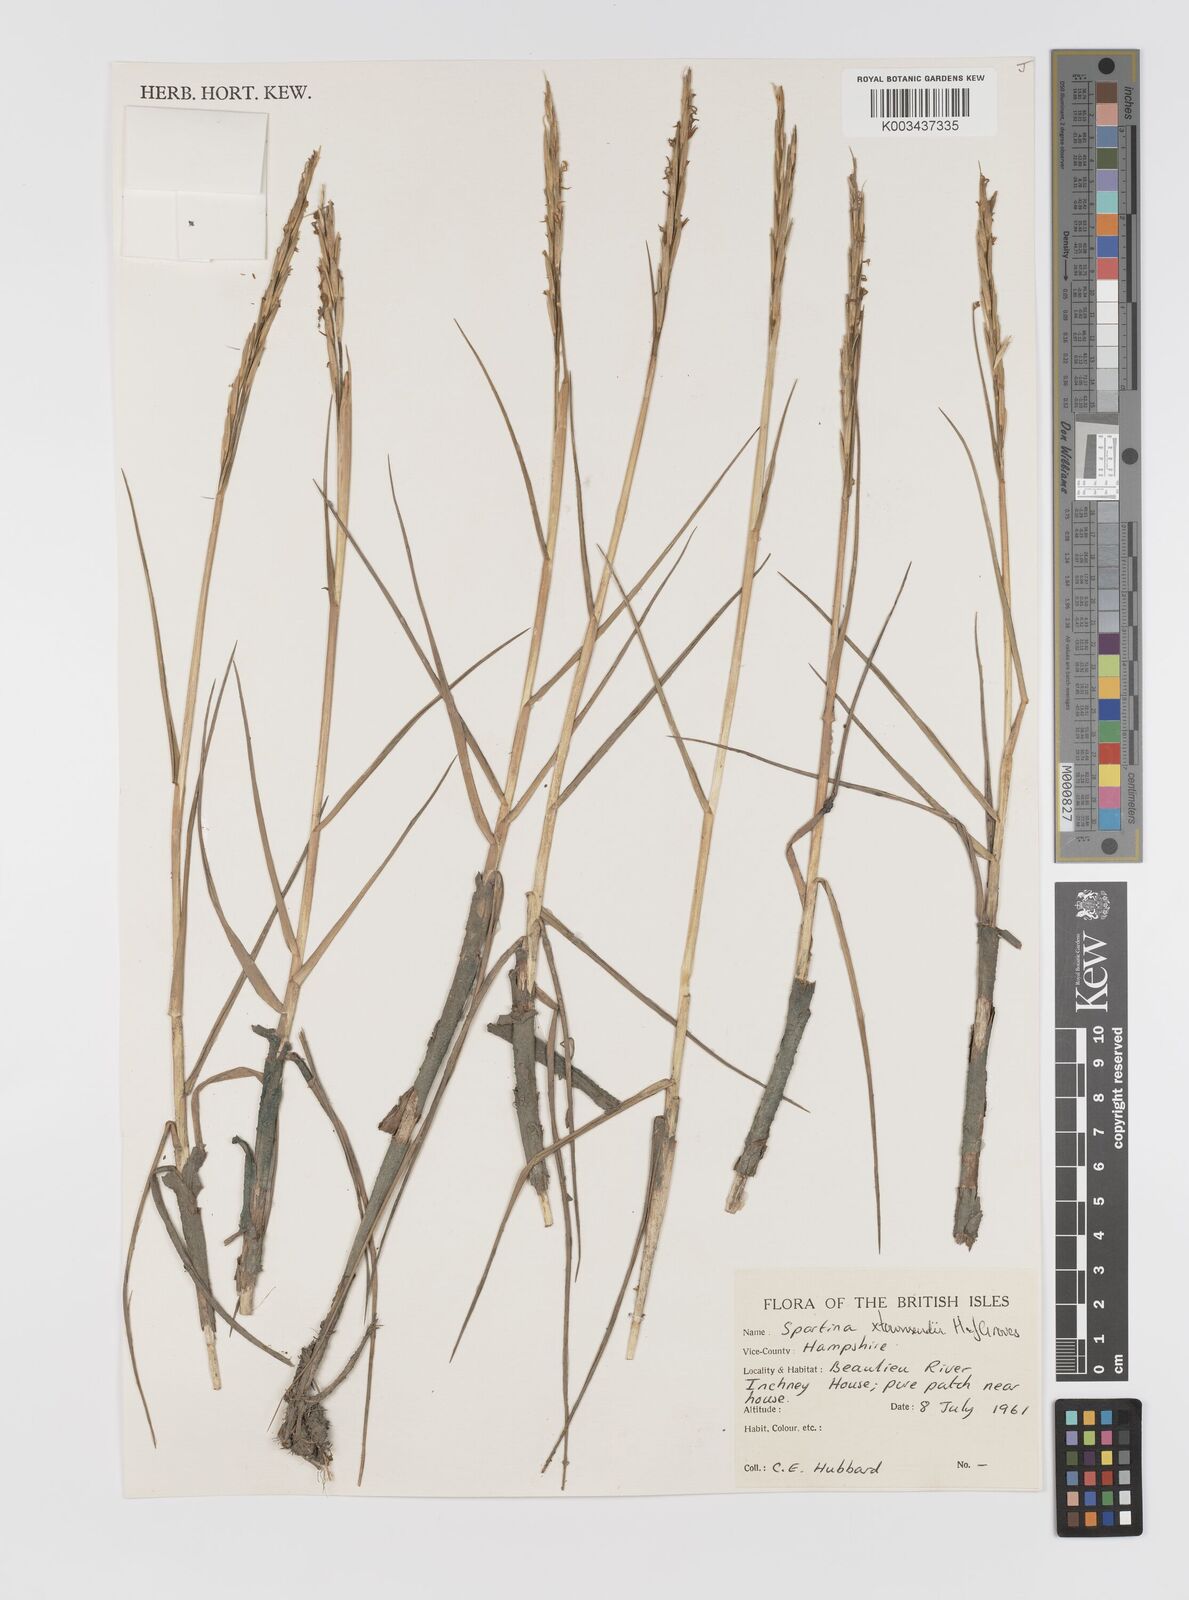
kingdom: Plantae
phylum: Tracheophyta
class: Liliopsida
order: Poales
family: Poaceae
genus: Sporobolus
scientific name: Sporobolus townsendii
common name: Townsend's cordgrass
